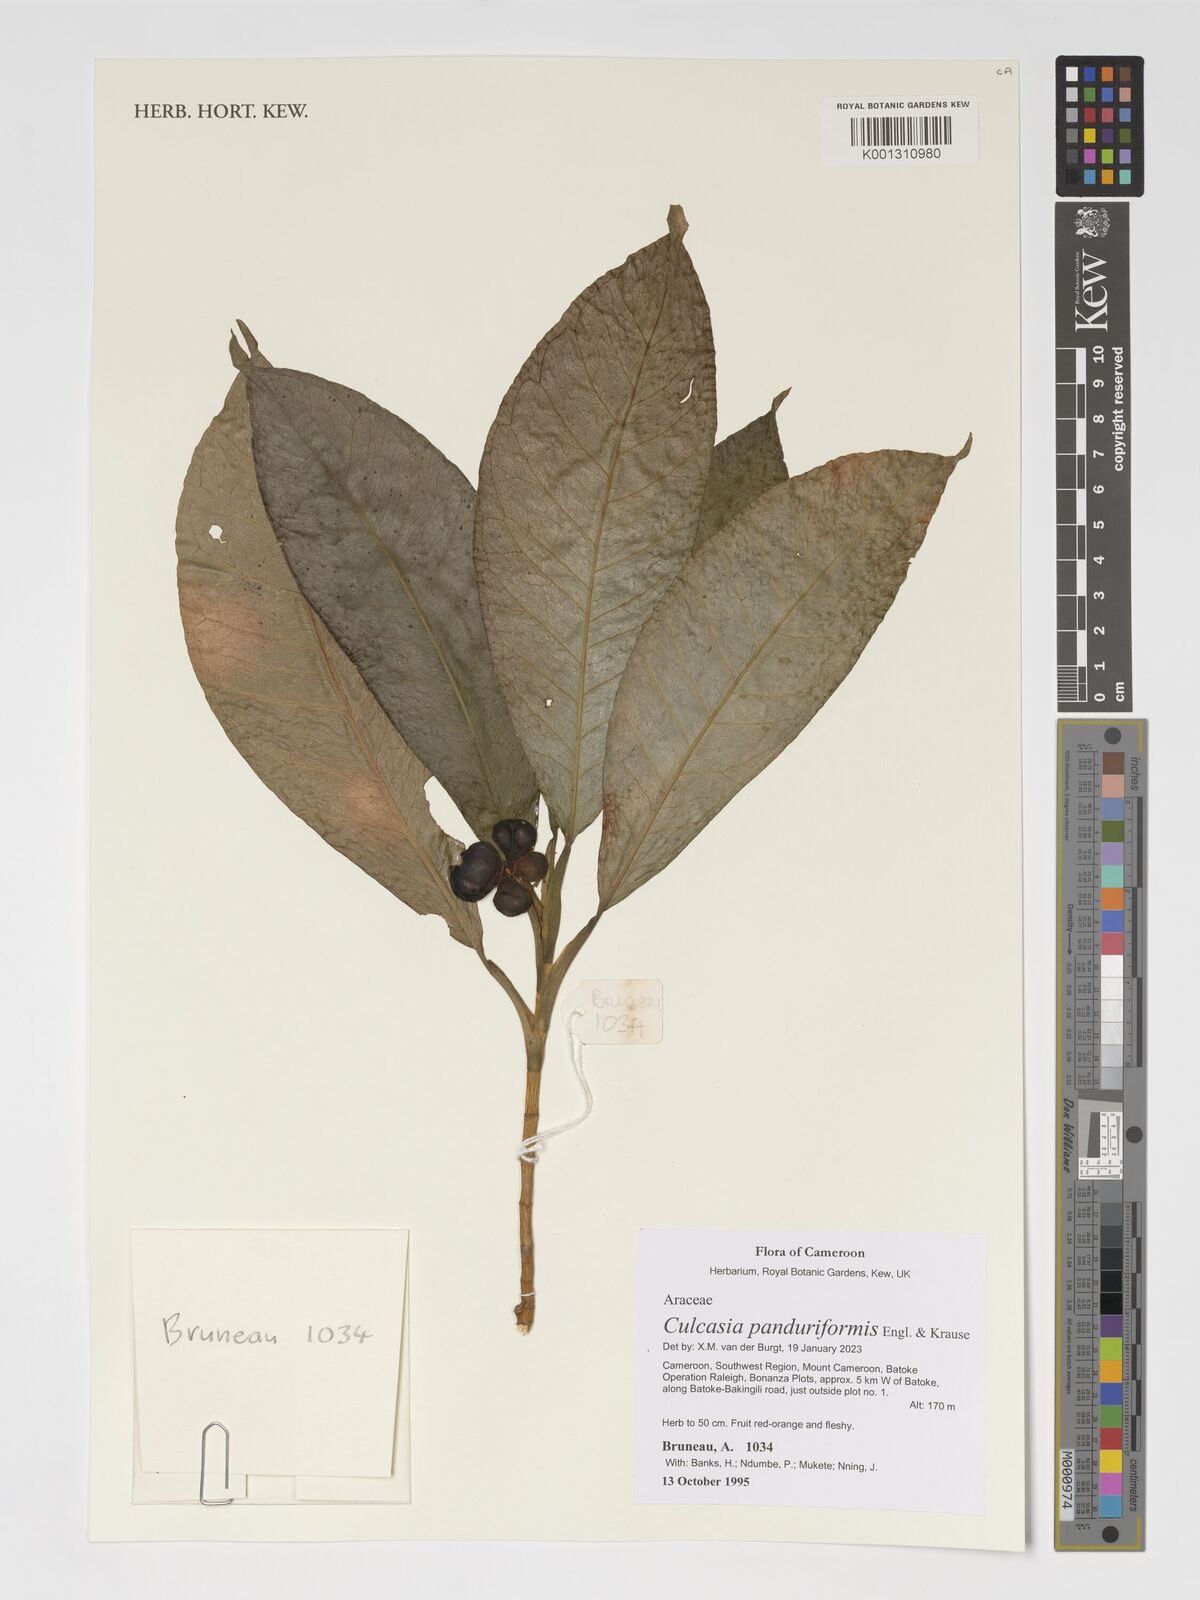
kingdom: Plantae
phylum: Tracheophyta
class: Liliopsida
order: Alismatales
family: Araceae
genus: Culcasia
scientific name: Culcasia panduriformis
